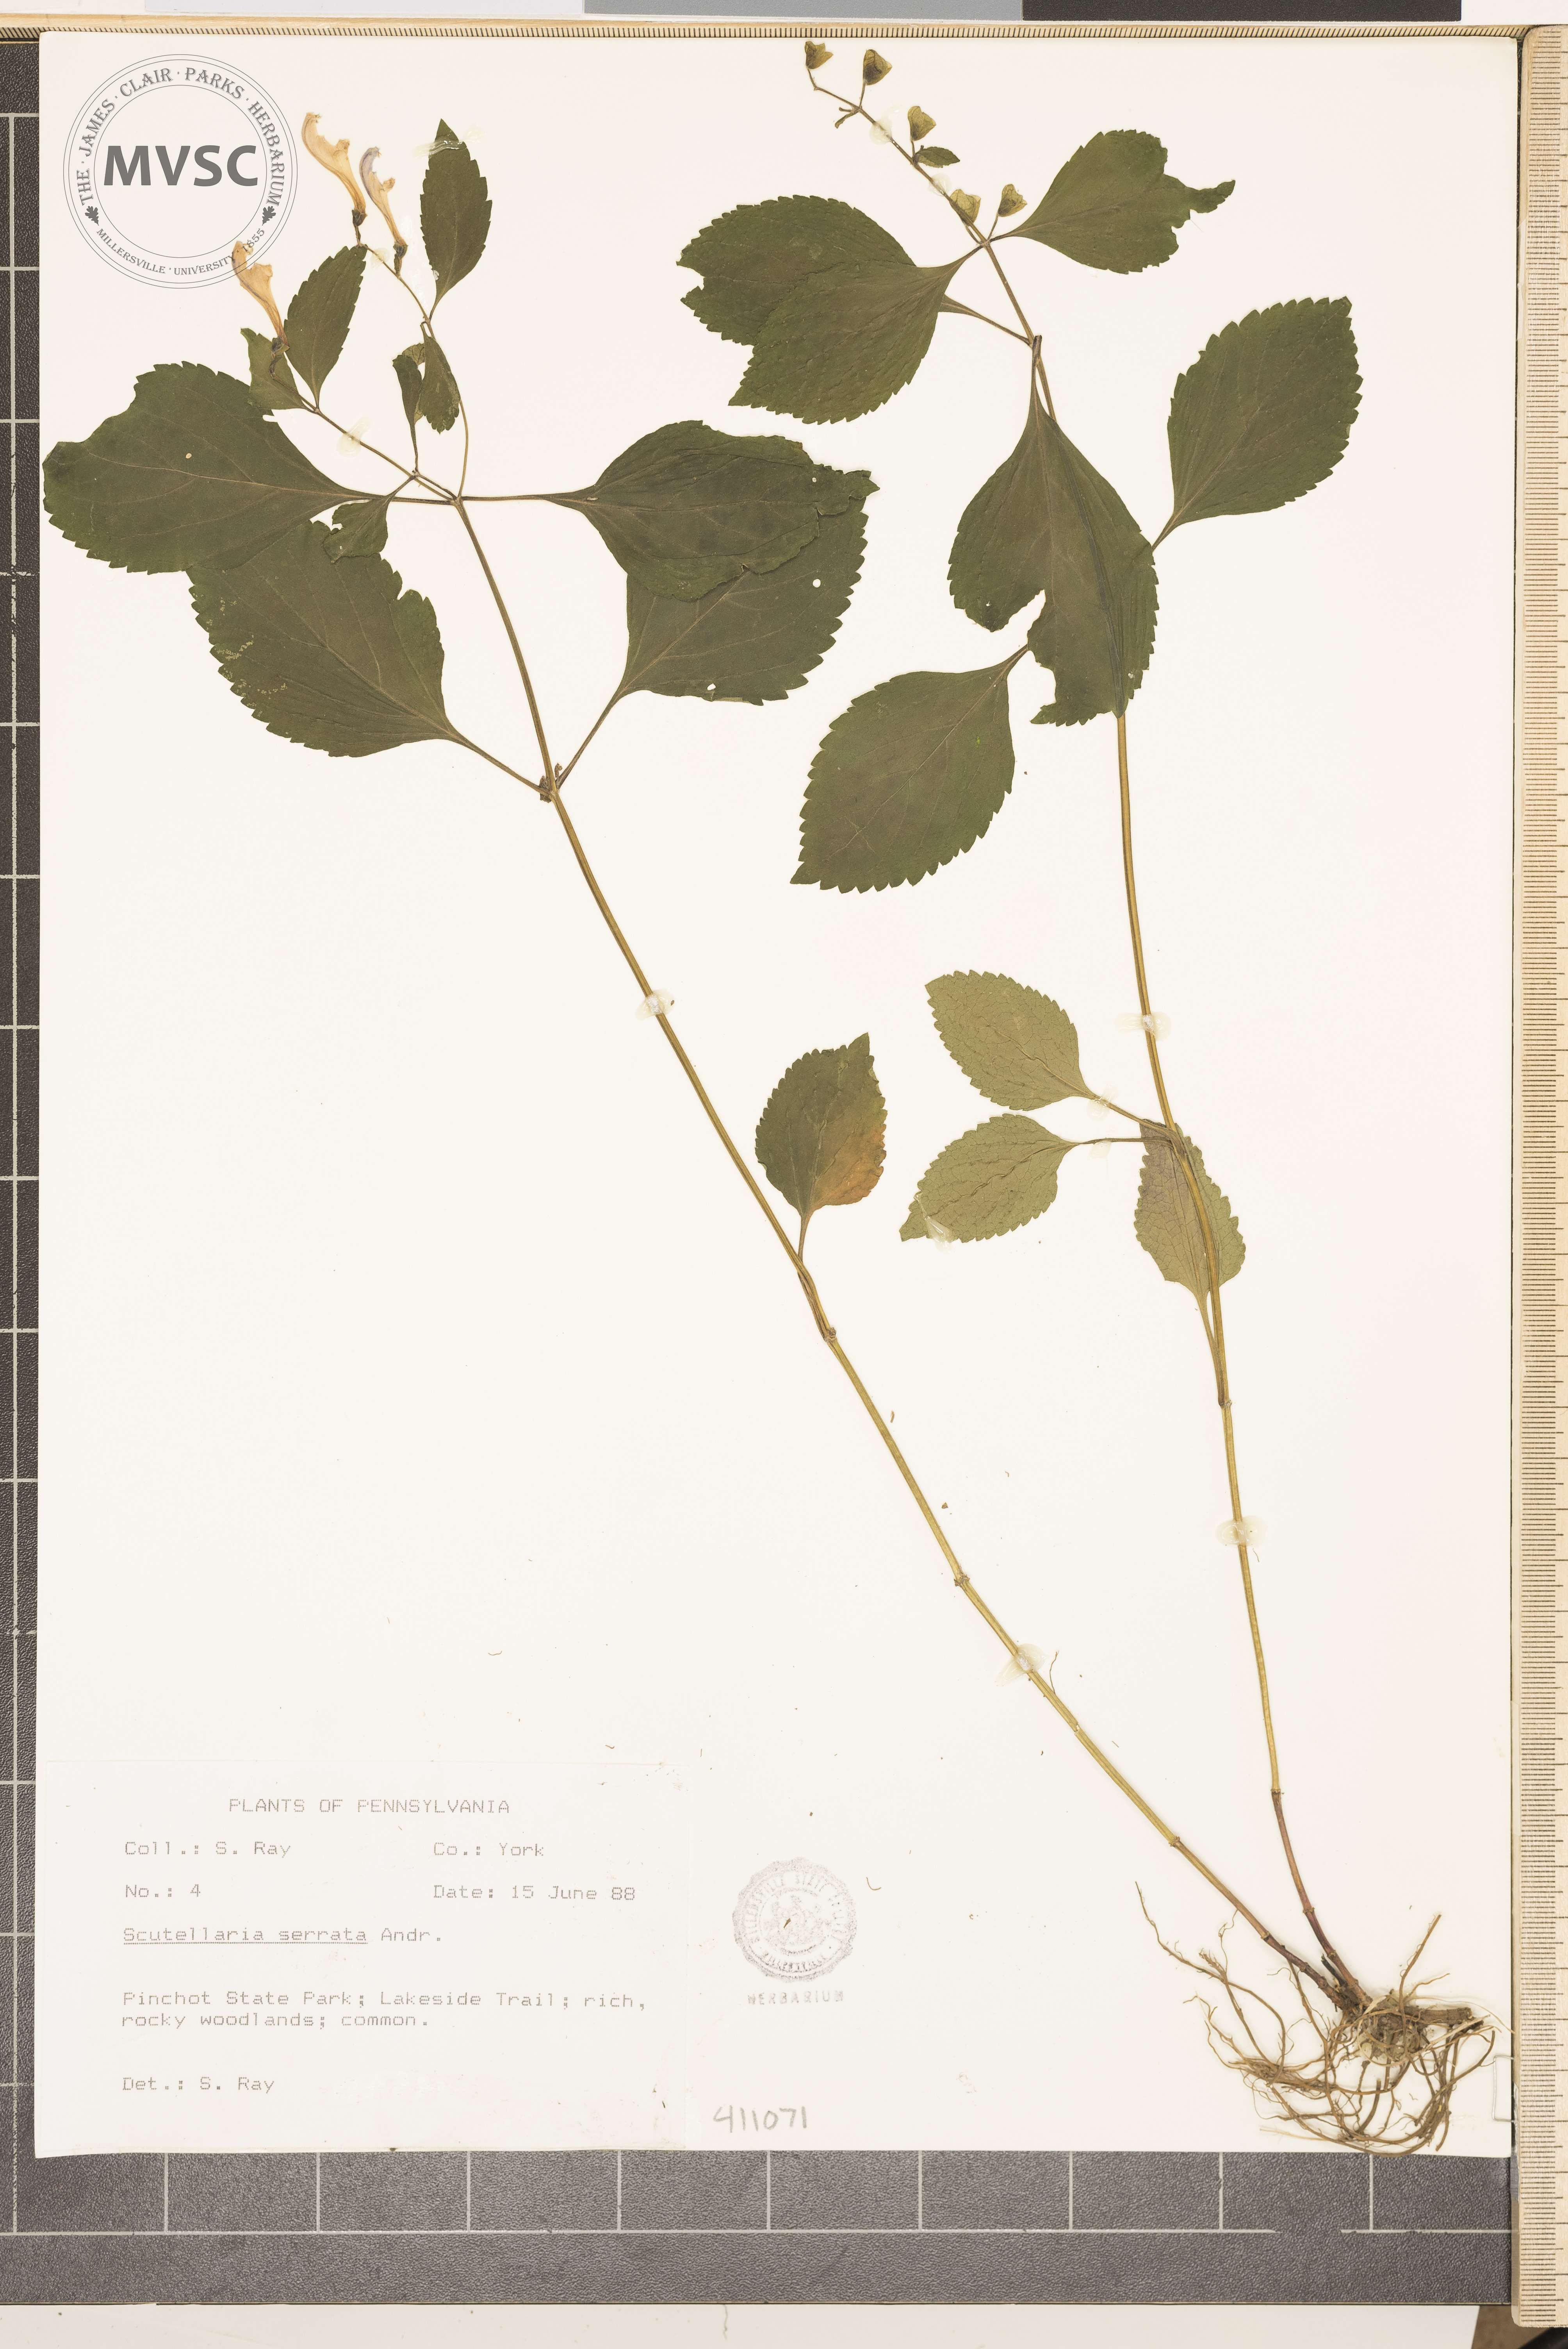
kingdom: Plantae
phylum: Tracheophyta
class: Magnoliopsida
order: Lamiales
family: Lamiaceae
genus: Scutellaria
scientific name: Scutellaria serrata
